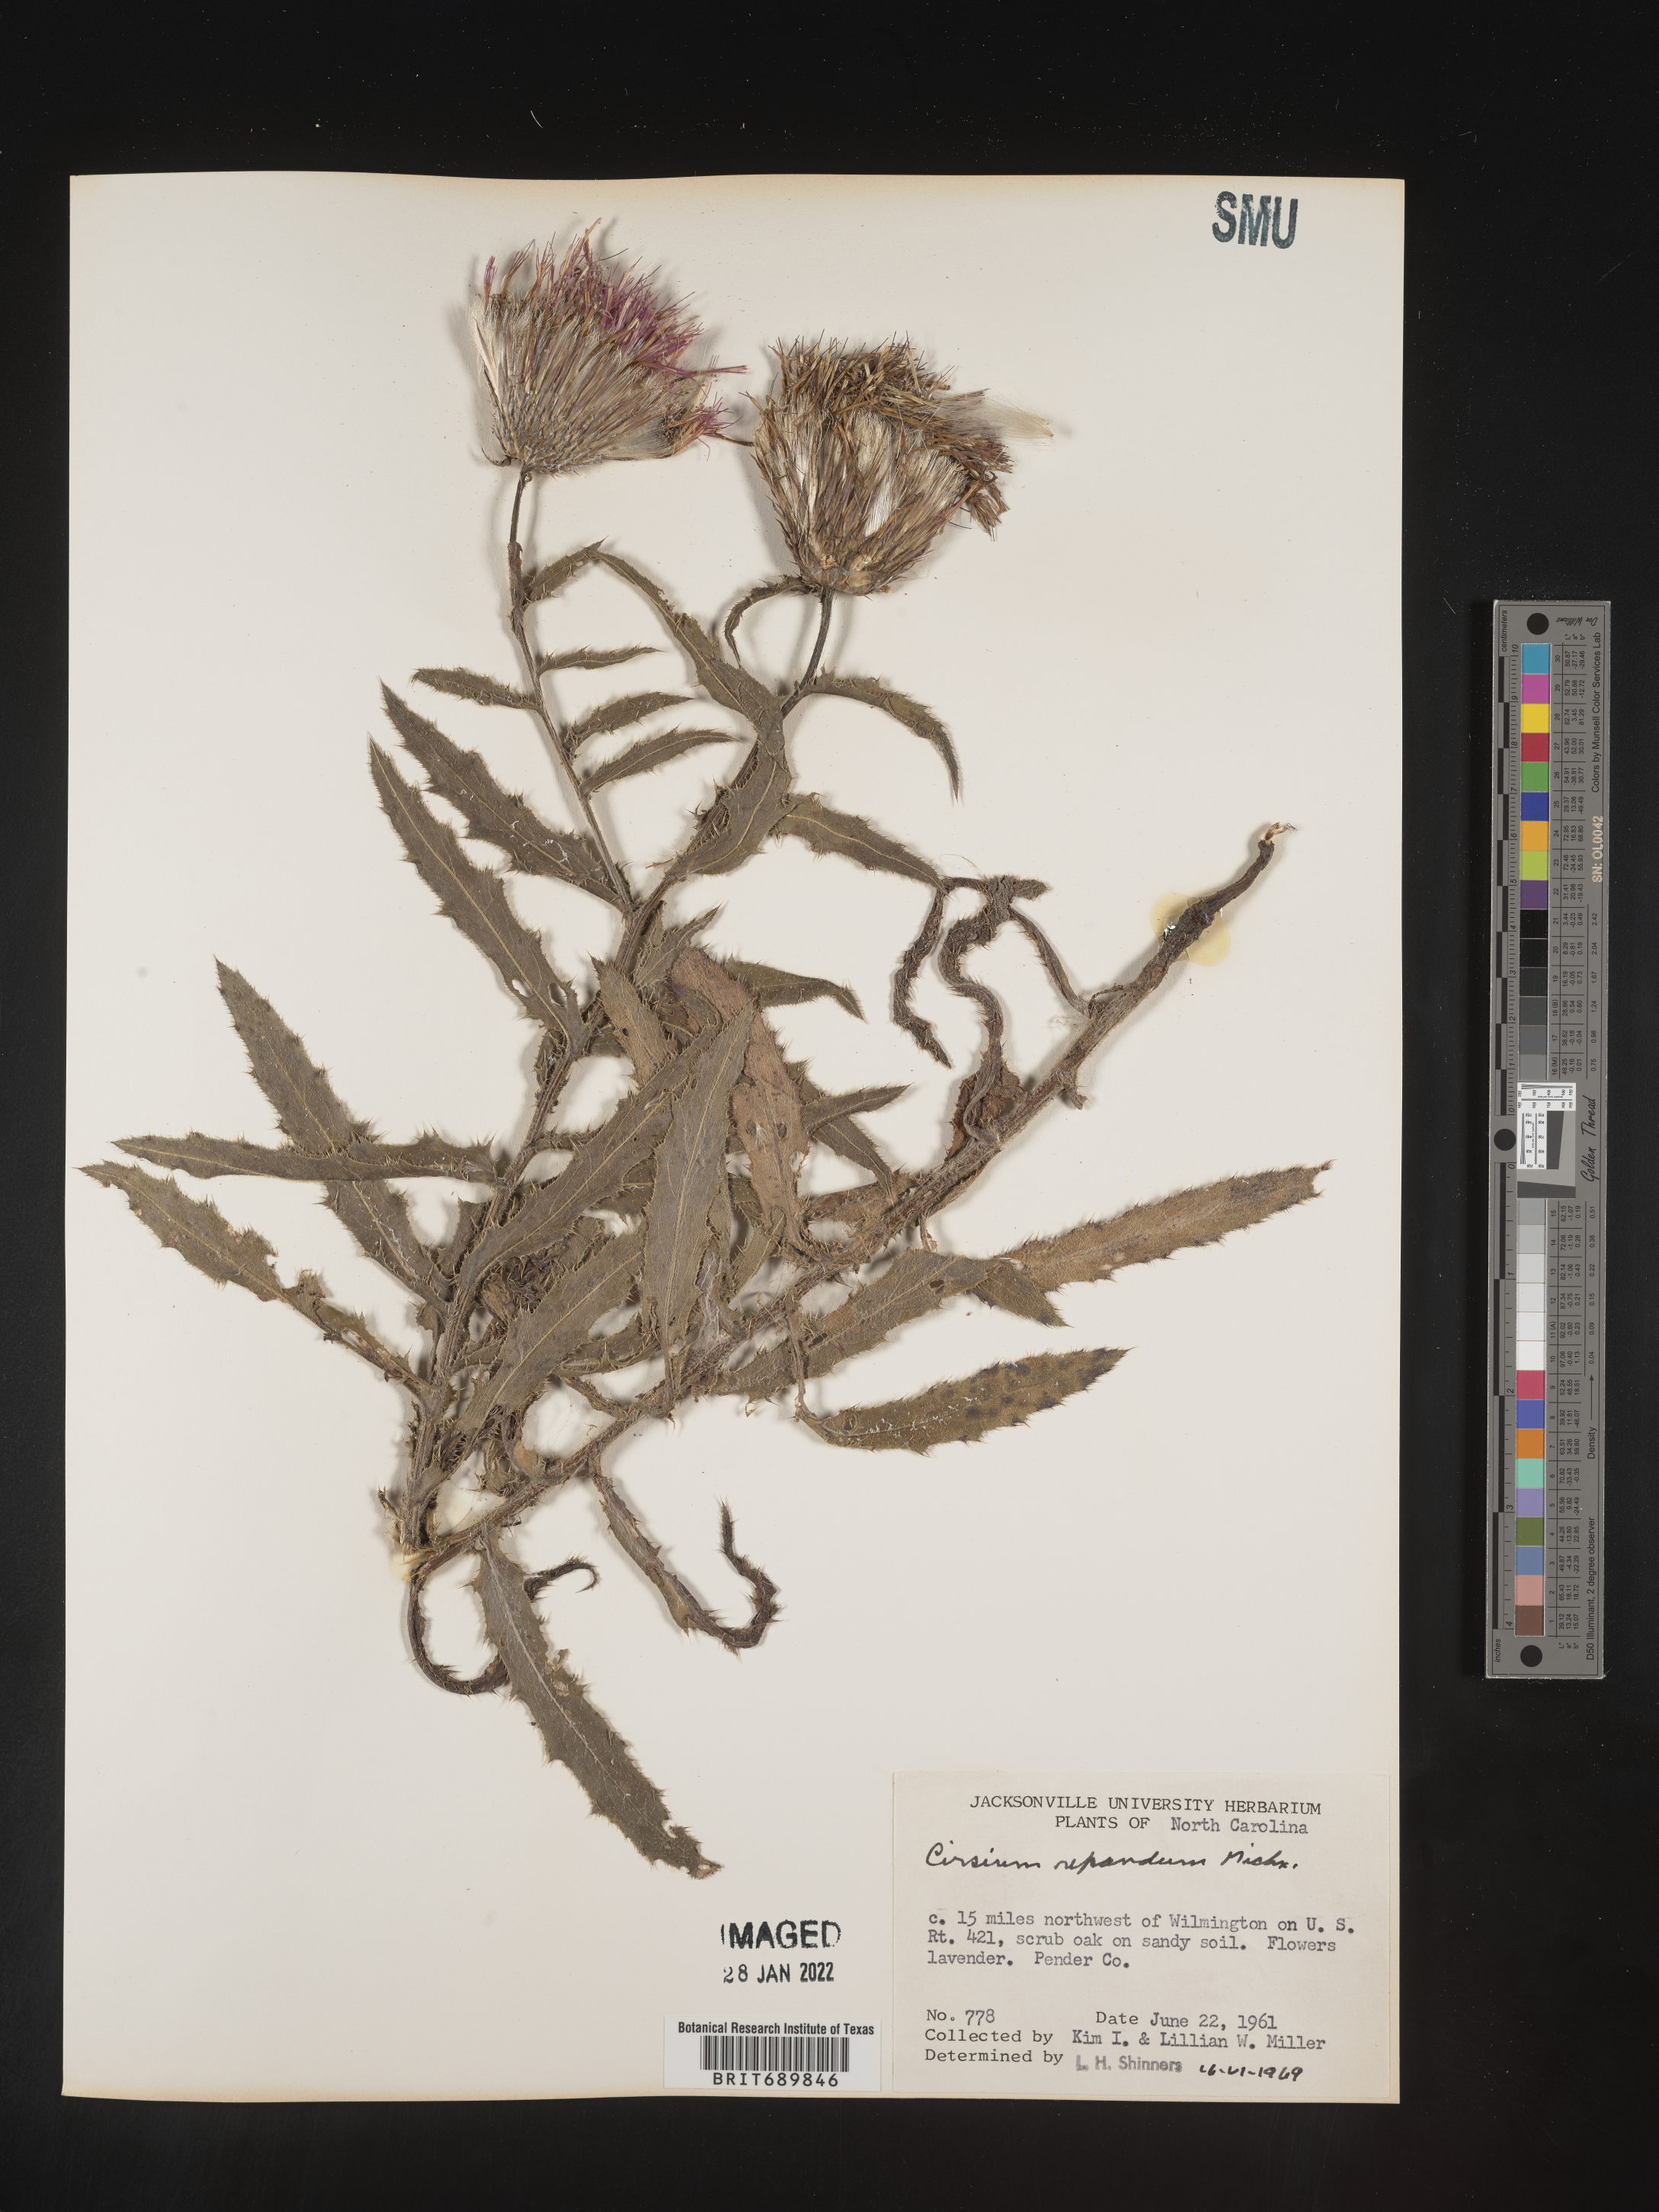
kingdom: Plantae
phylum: Tracheophyta
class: Magnoliopsida
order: Asterales
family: Asteraceae
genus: Cirsium
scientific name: Cirsium repandum
